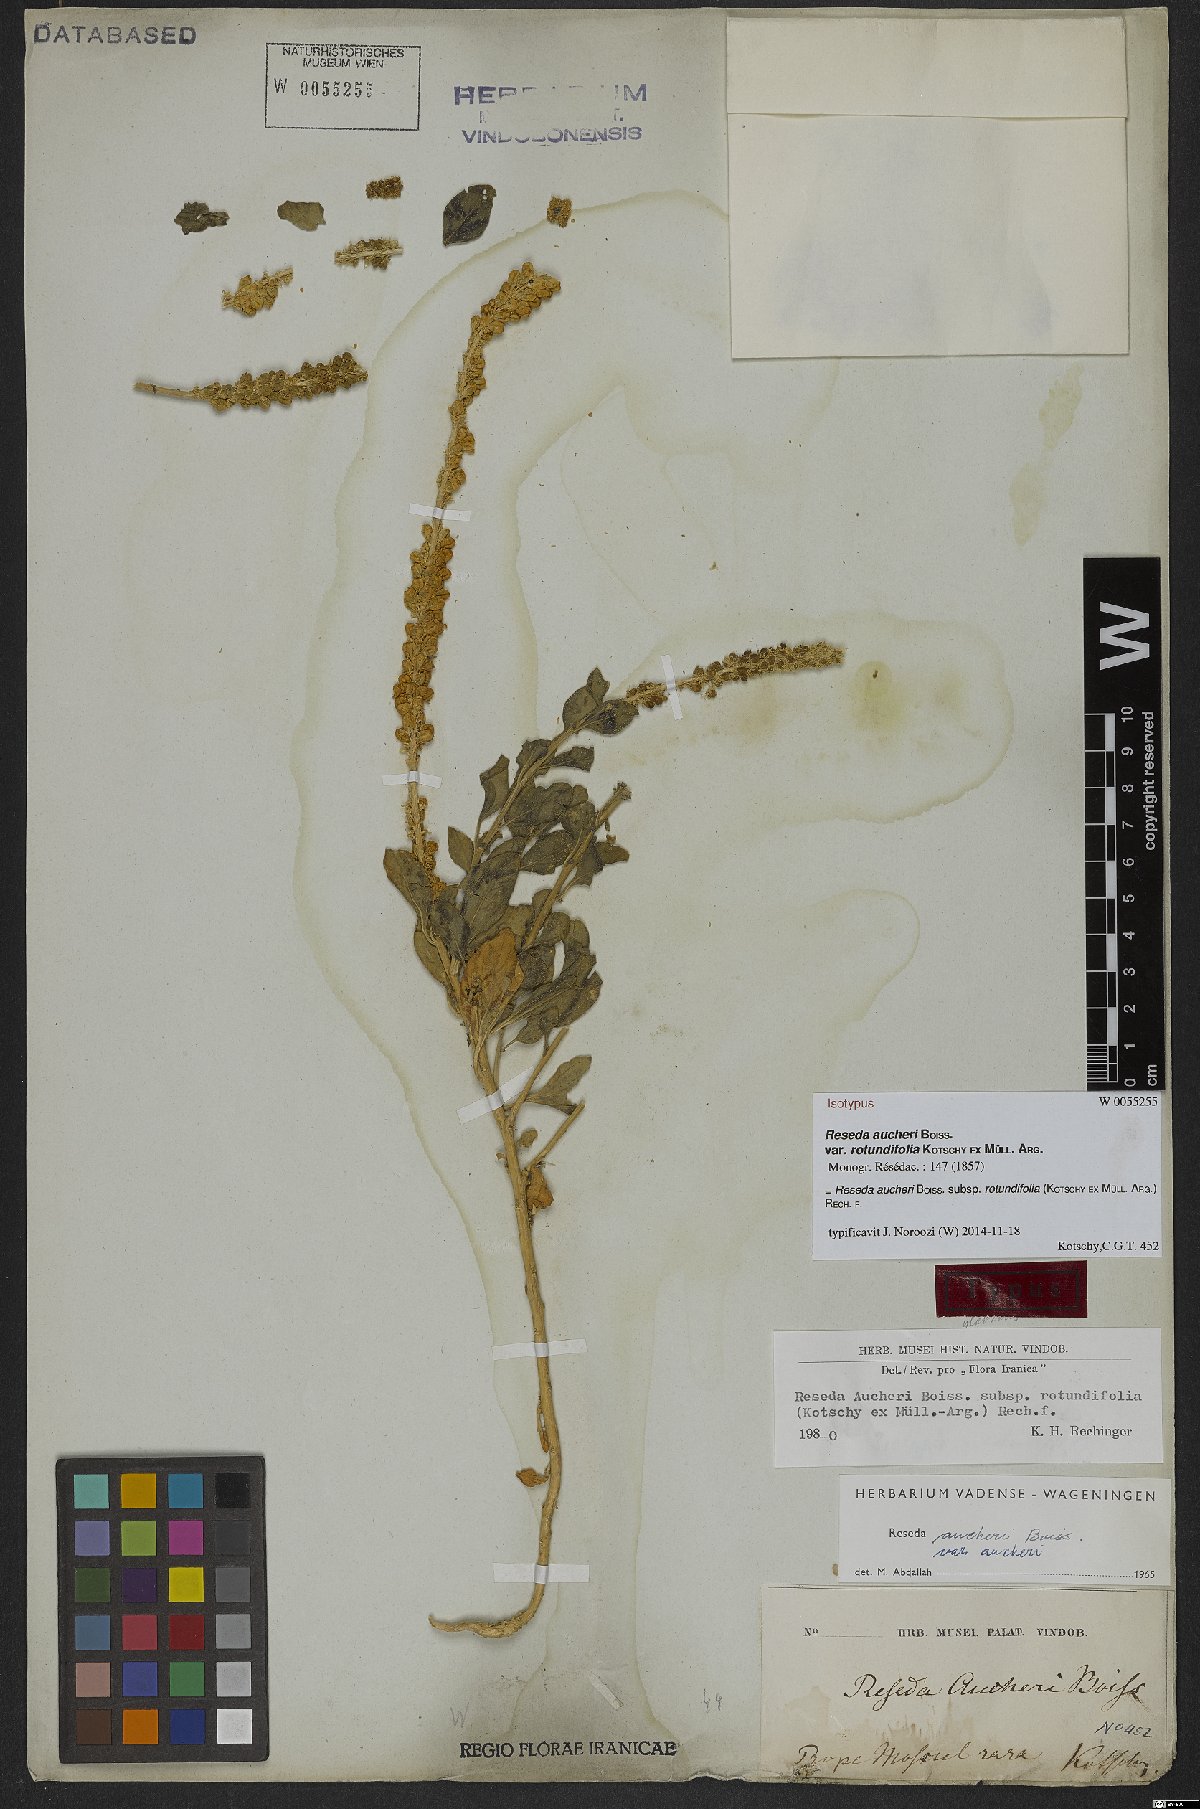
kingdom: Plantae
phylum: Tracheophyta
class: Magnoliopsida
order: Brassicales
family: Resedaceae
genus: Reseda
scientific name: Reseda aucheri
